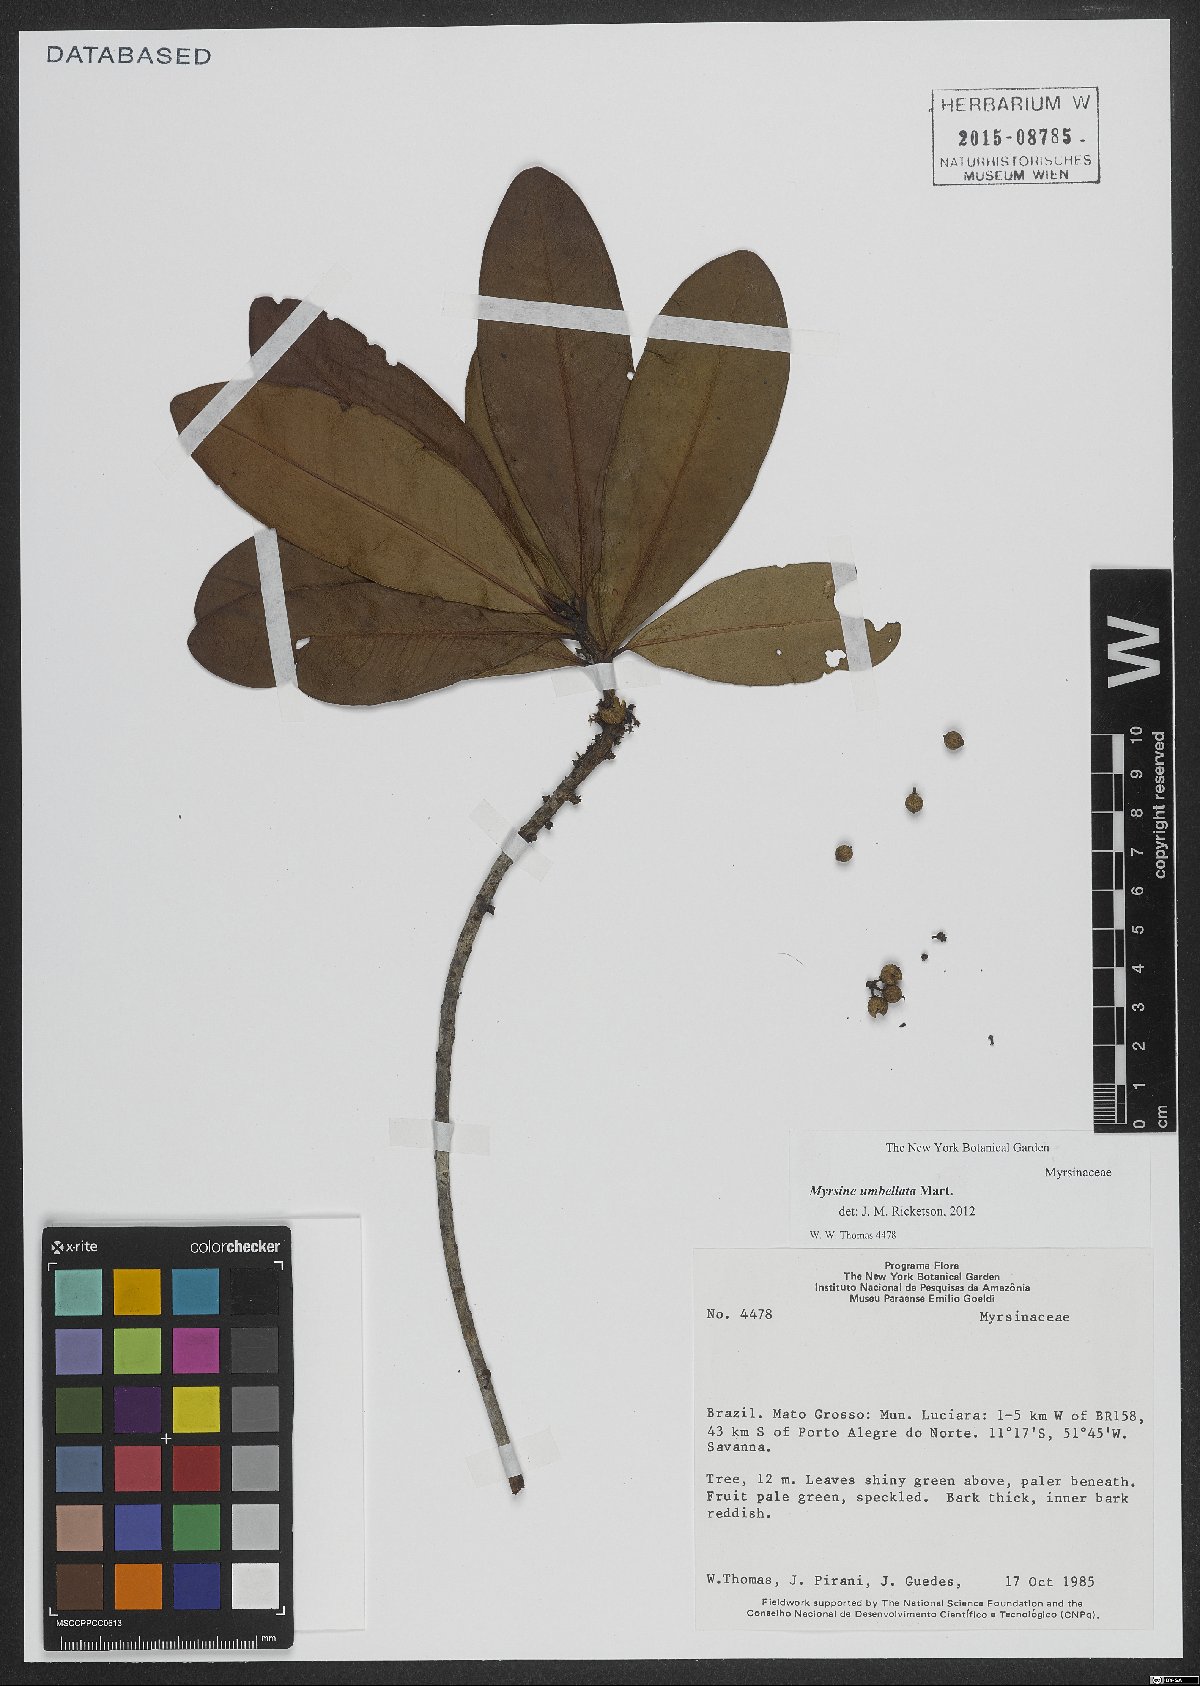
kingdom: Plantae
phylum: Tracheophyta
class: Magnoliopsida
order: Ericales
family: Primulaceae
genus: Myrsine
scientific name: Myrsine umbellata
